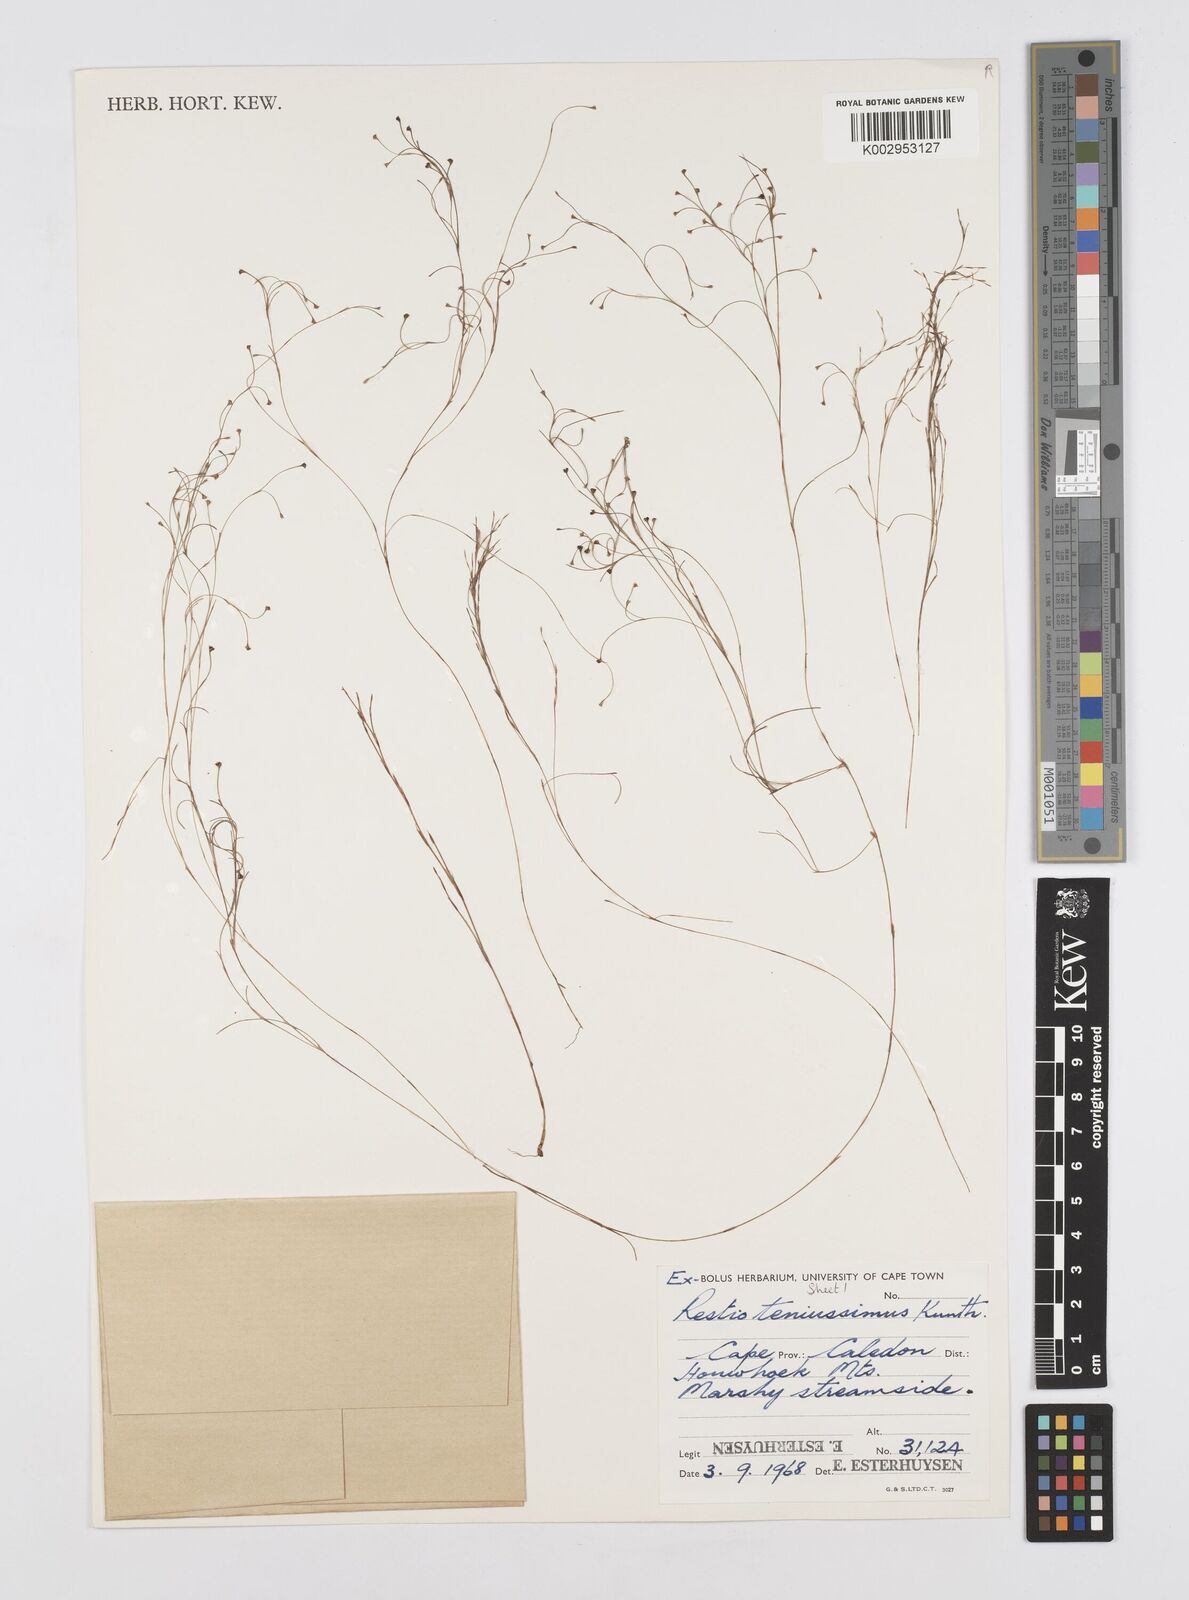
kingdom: Plantae
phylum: Tracheophyta
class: Liliopsida
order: Poales
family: Restionaceae
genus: Restio
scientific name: Restio tenuissimus
